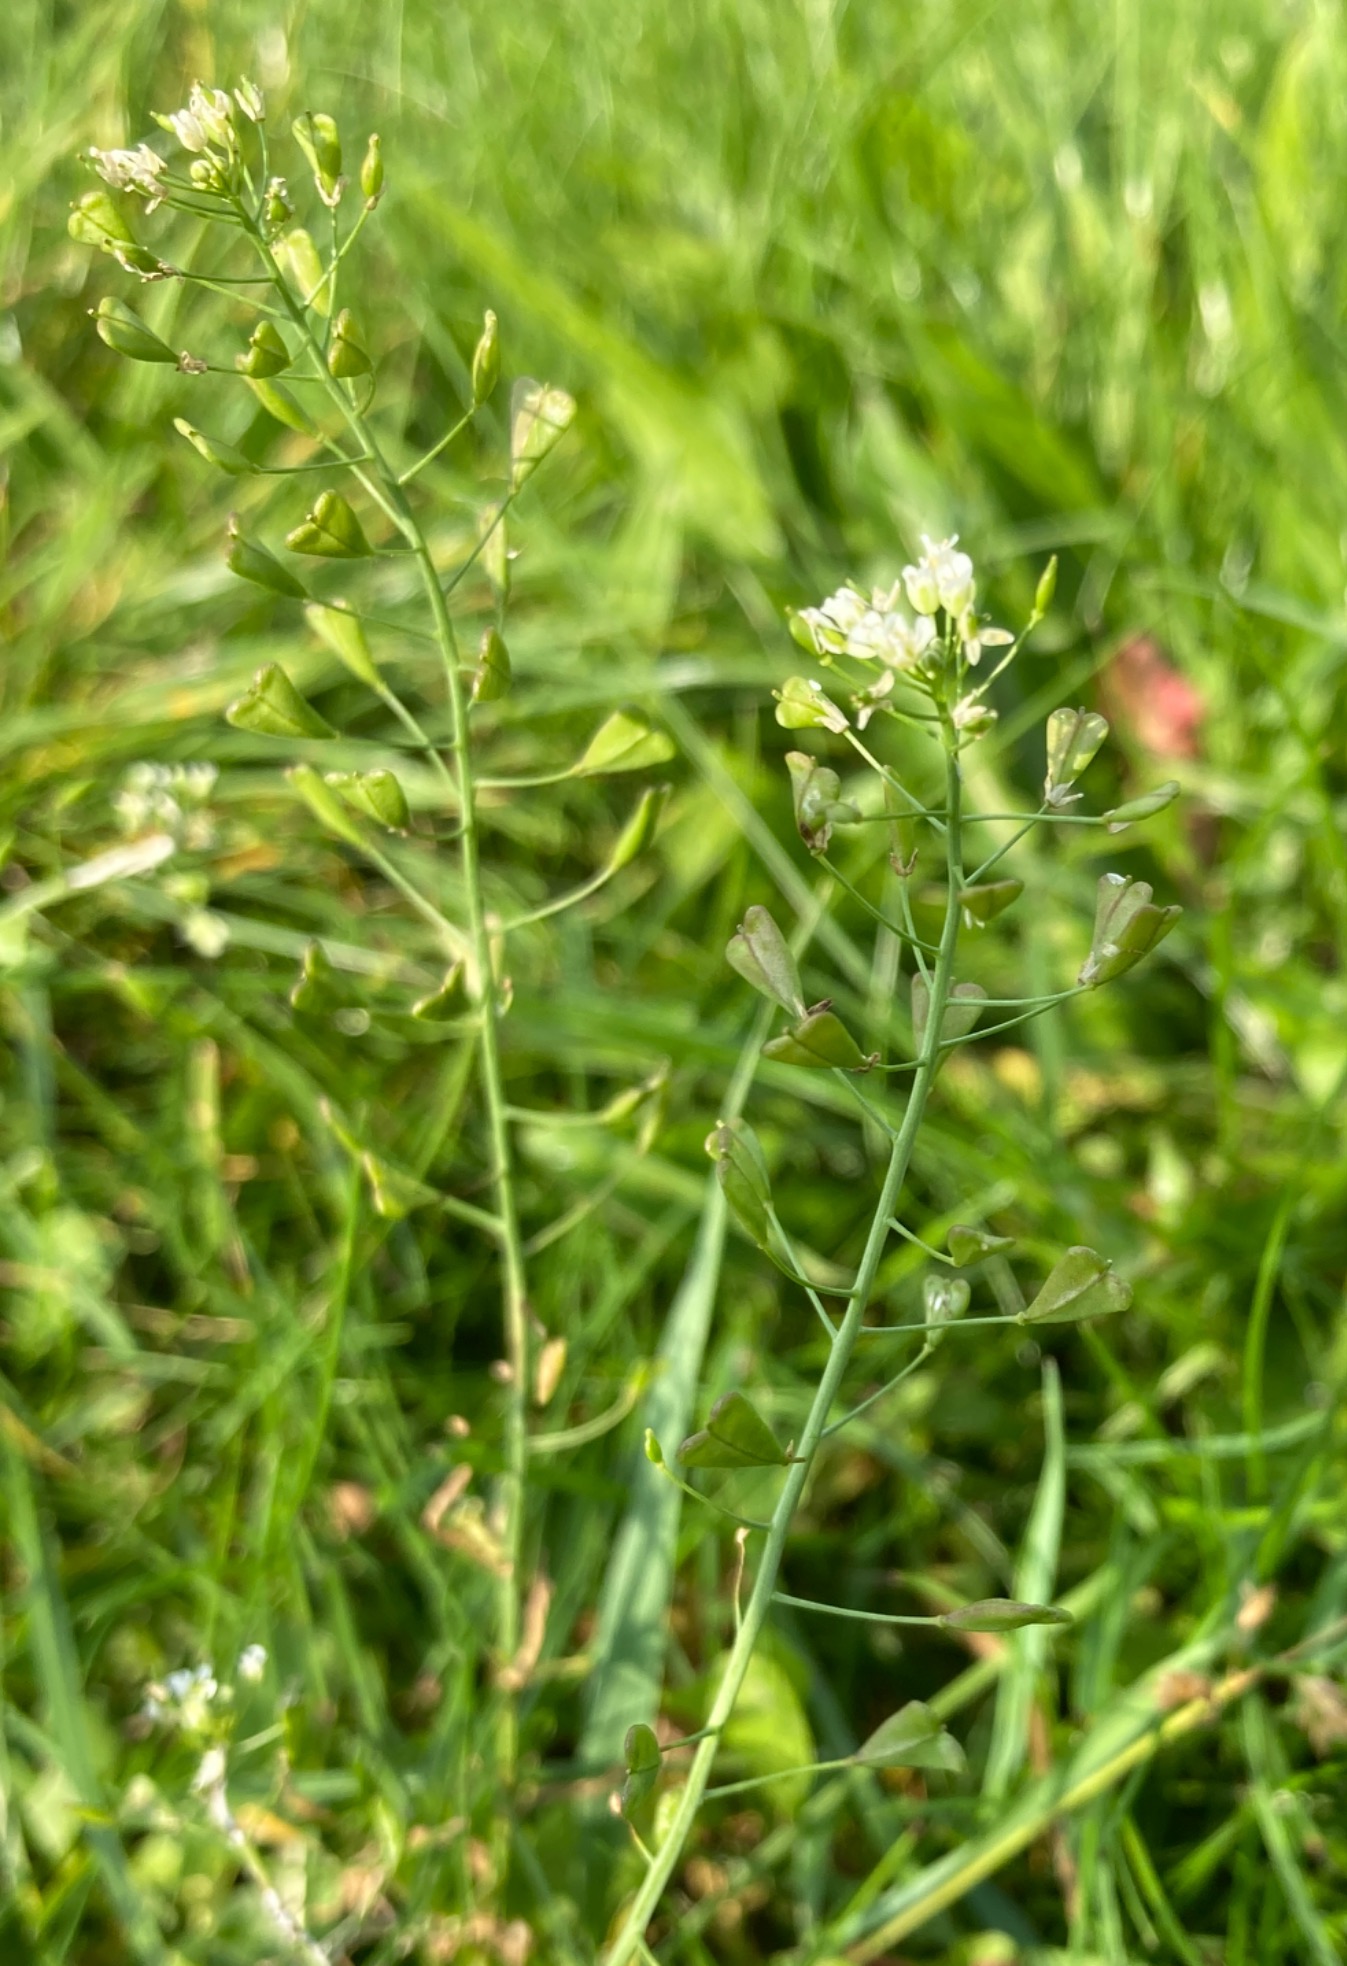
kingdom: Plantae
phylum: Tracheophyta
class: Magnoliopsida
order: Brassicales
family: Brassicaceae
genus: Capsella
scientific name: Capsella bursa-pastoris
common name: Hyrdetaske
